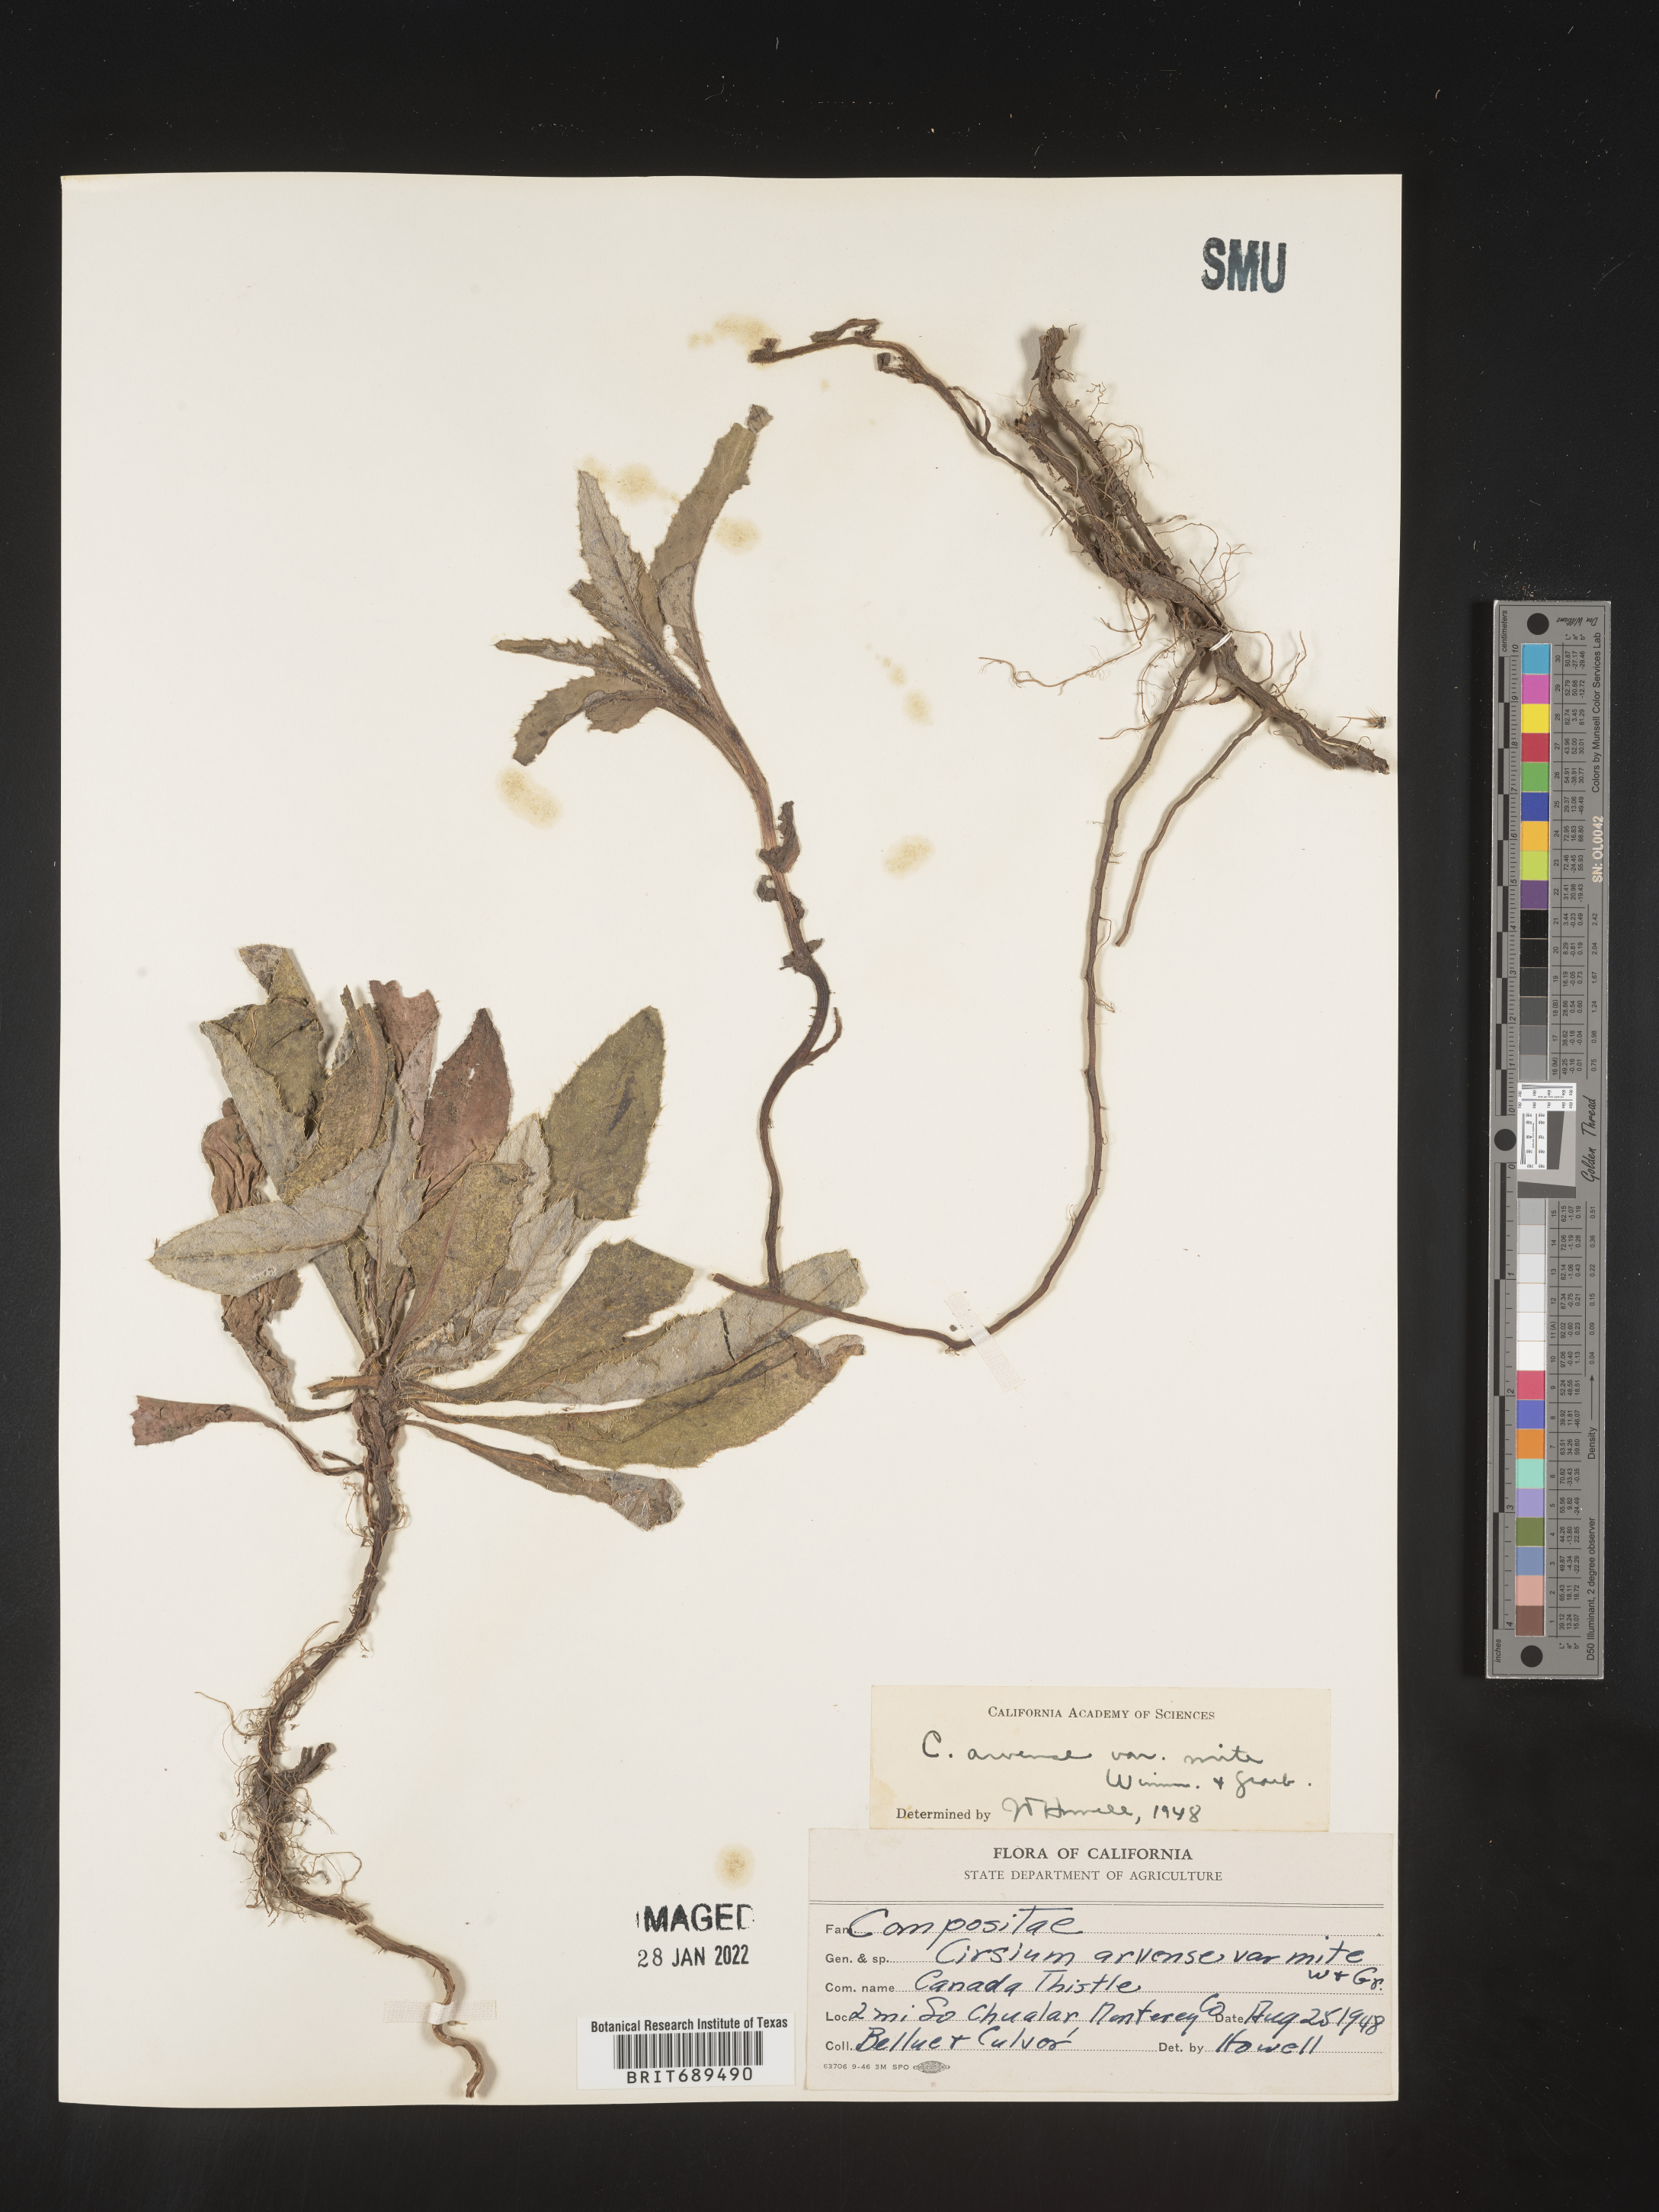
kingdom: Plantae
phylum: Tracheophyta
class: Magnoliopsida
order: Asterales
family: Asteraceae
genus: Cirsium
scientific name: Cirsium arvense
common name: Creeping thistle
